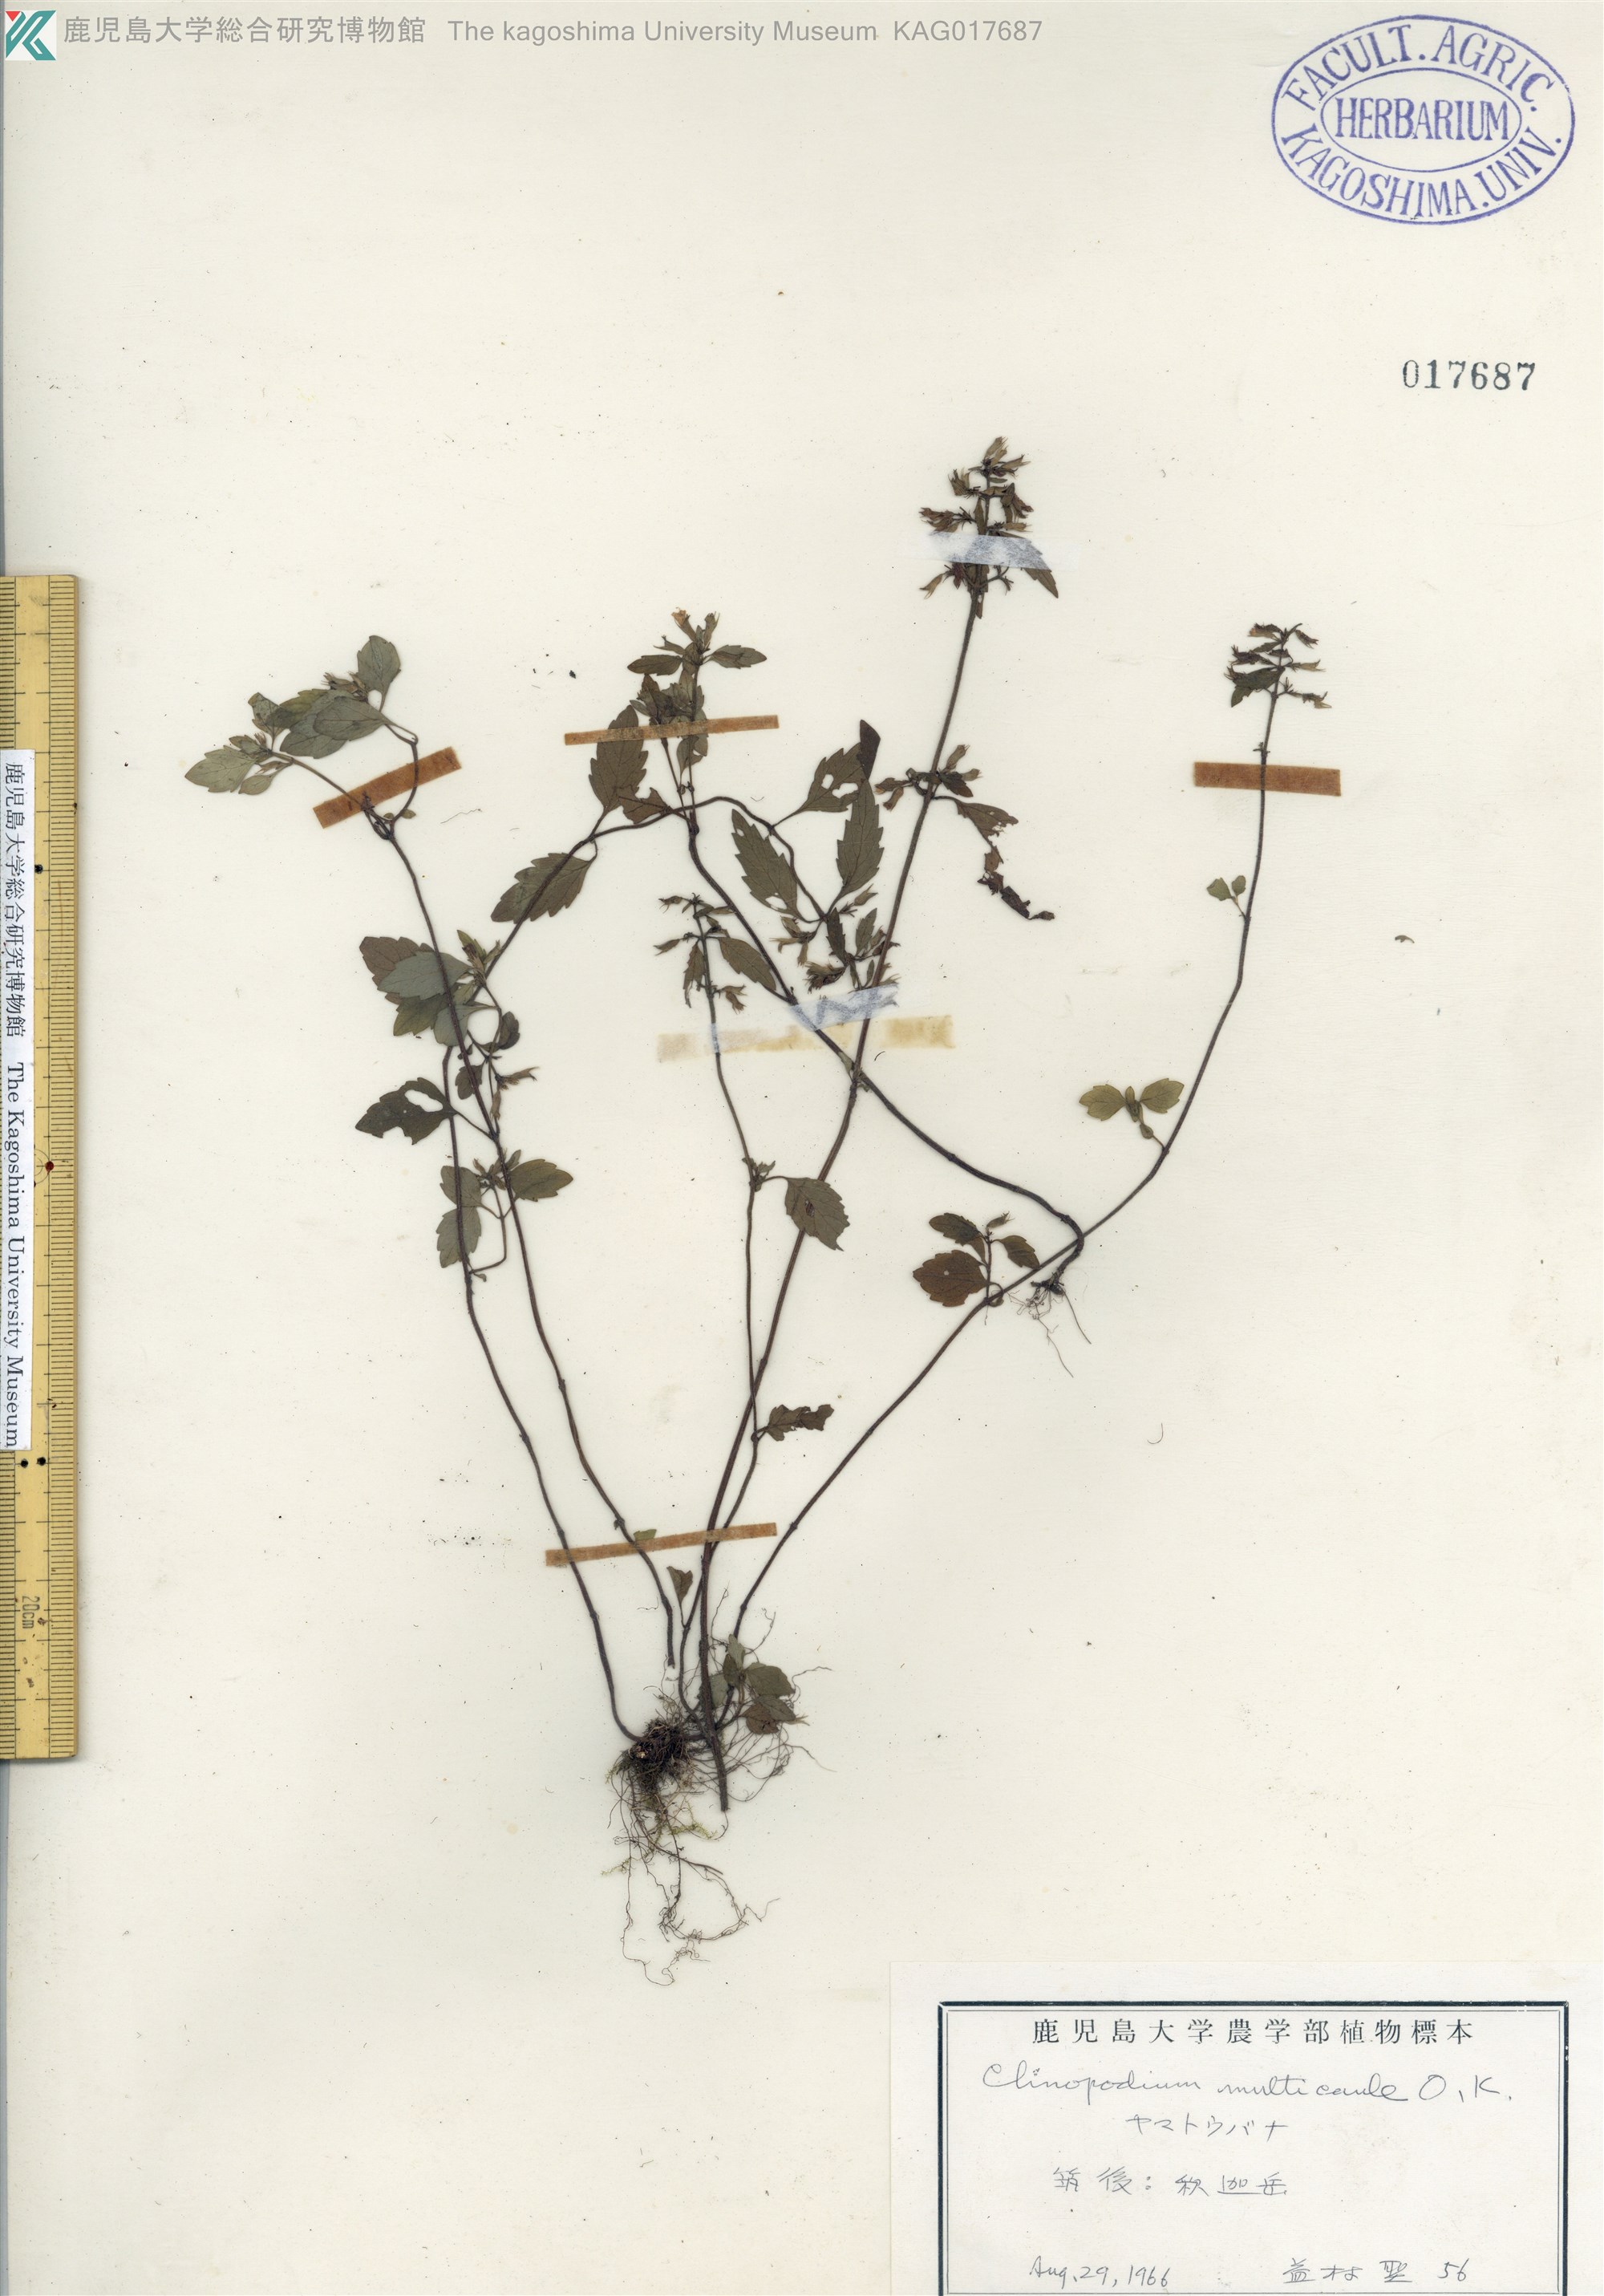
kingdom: Plantae
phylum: Tracheophyta
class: Magnoliopsida
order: Lamiales
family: Lamiaceae
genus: Clinopodium
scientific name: Clinopodium multicaule
